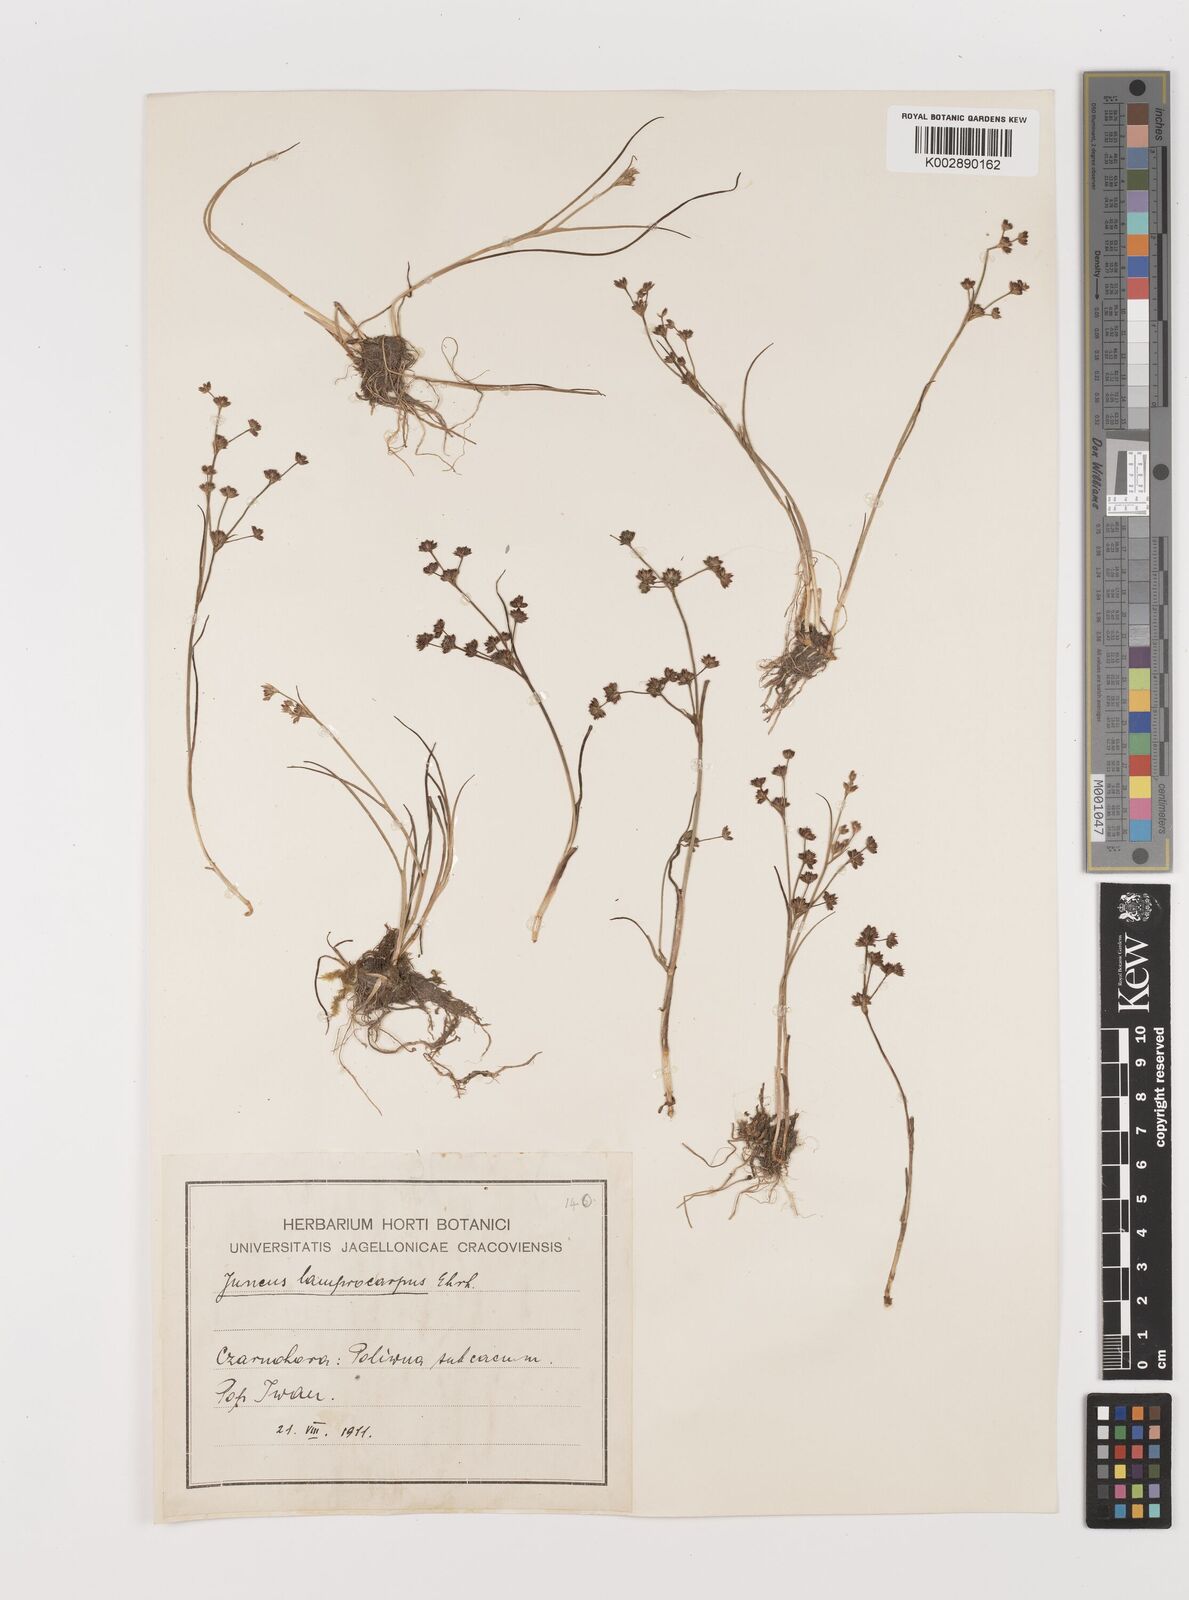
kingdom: Plantae
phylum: Tracheophyta
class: Liliopsida
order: Poales
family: Juncaceae
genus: Juncus
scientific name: Juncus articulatus
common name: Jointed rush
